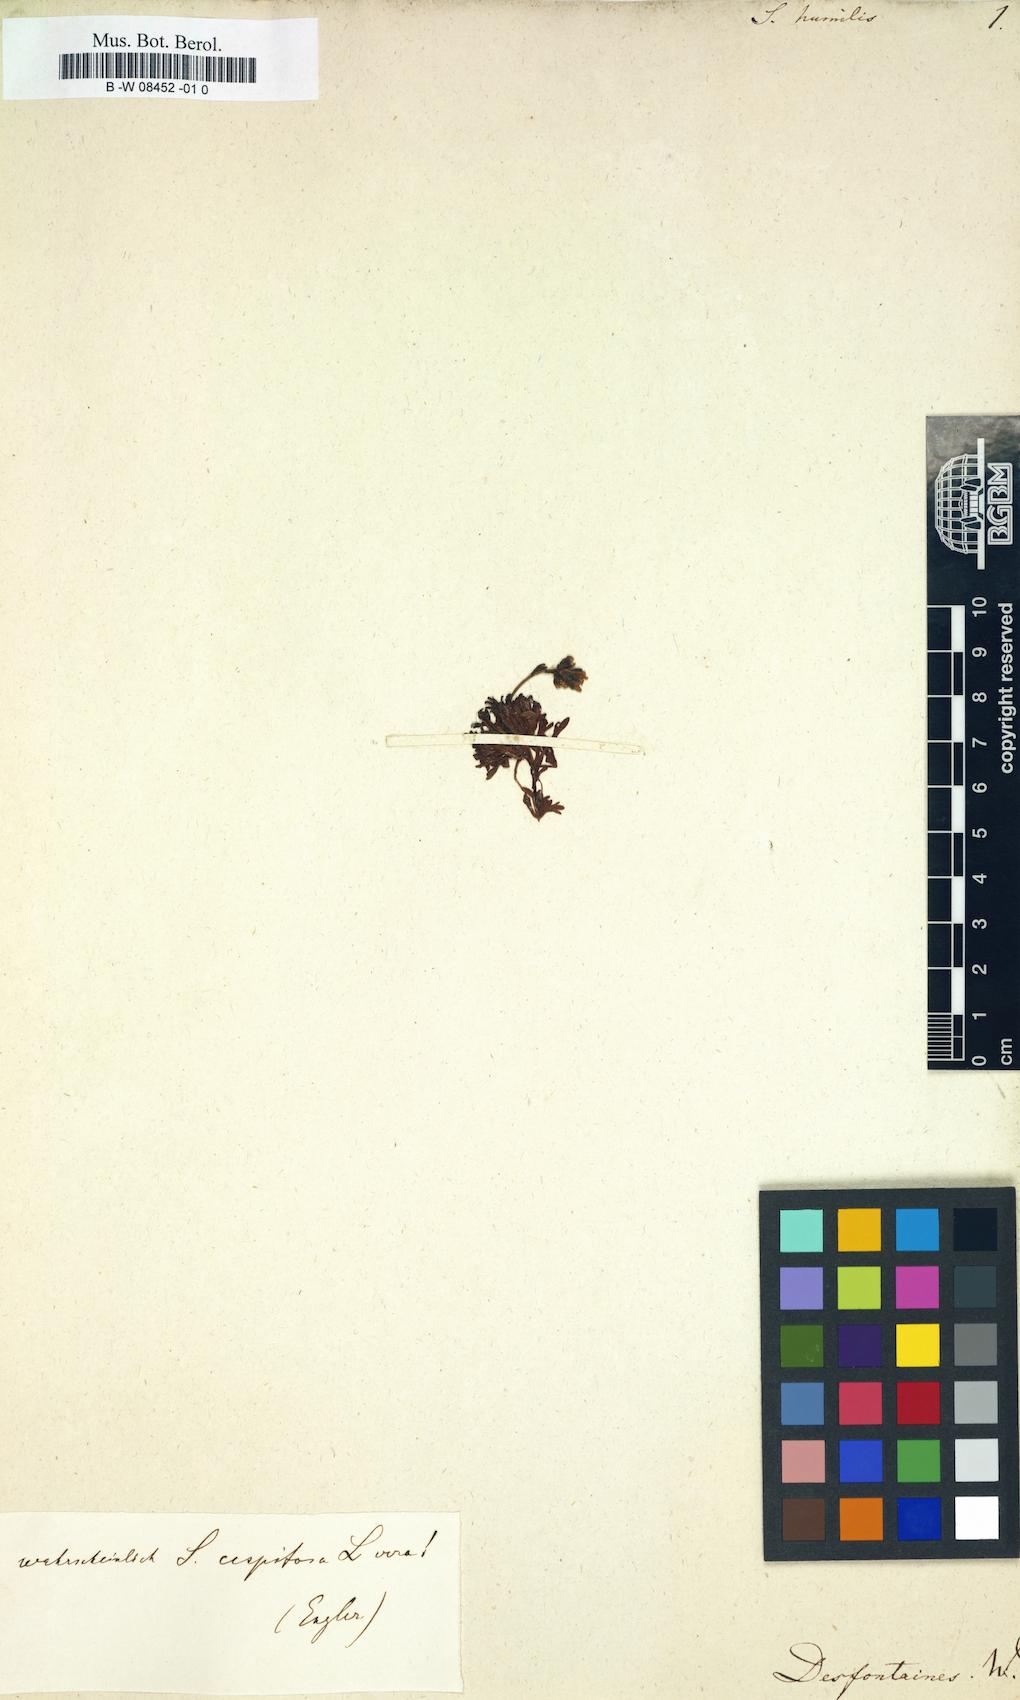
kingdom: Plantae
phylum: Tracheophyta
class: Magnoliopsida
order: Saxifragales
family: Saxifragaceae
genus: Saxifraga
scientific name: Saxifraga coarctata
